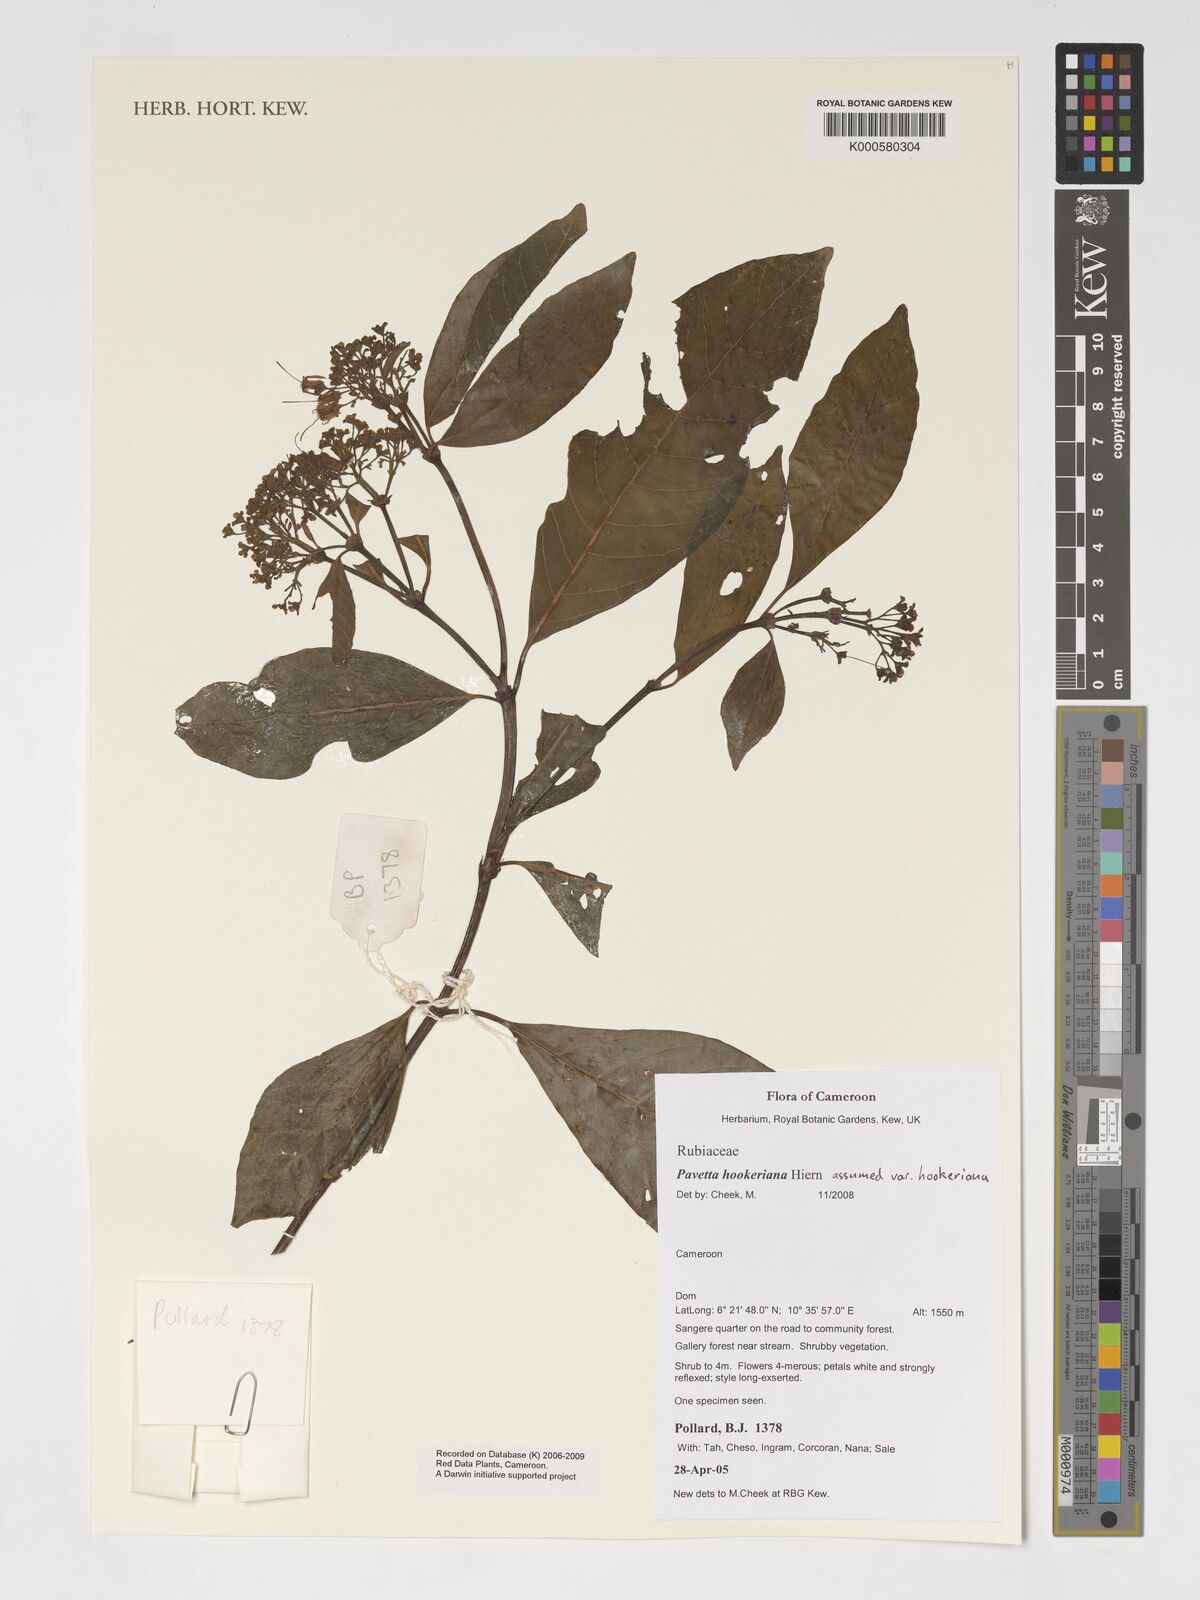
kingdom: Plantae
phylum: Tracheophyta
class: Magnoliopsida
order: Gentianales
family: Rubiaceae
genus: Pavetta
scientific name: Pavetta hookeriana
